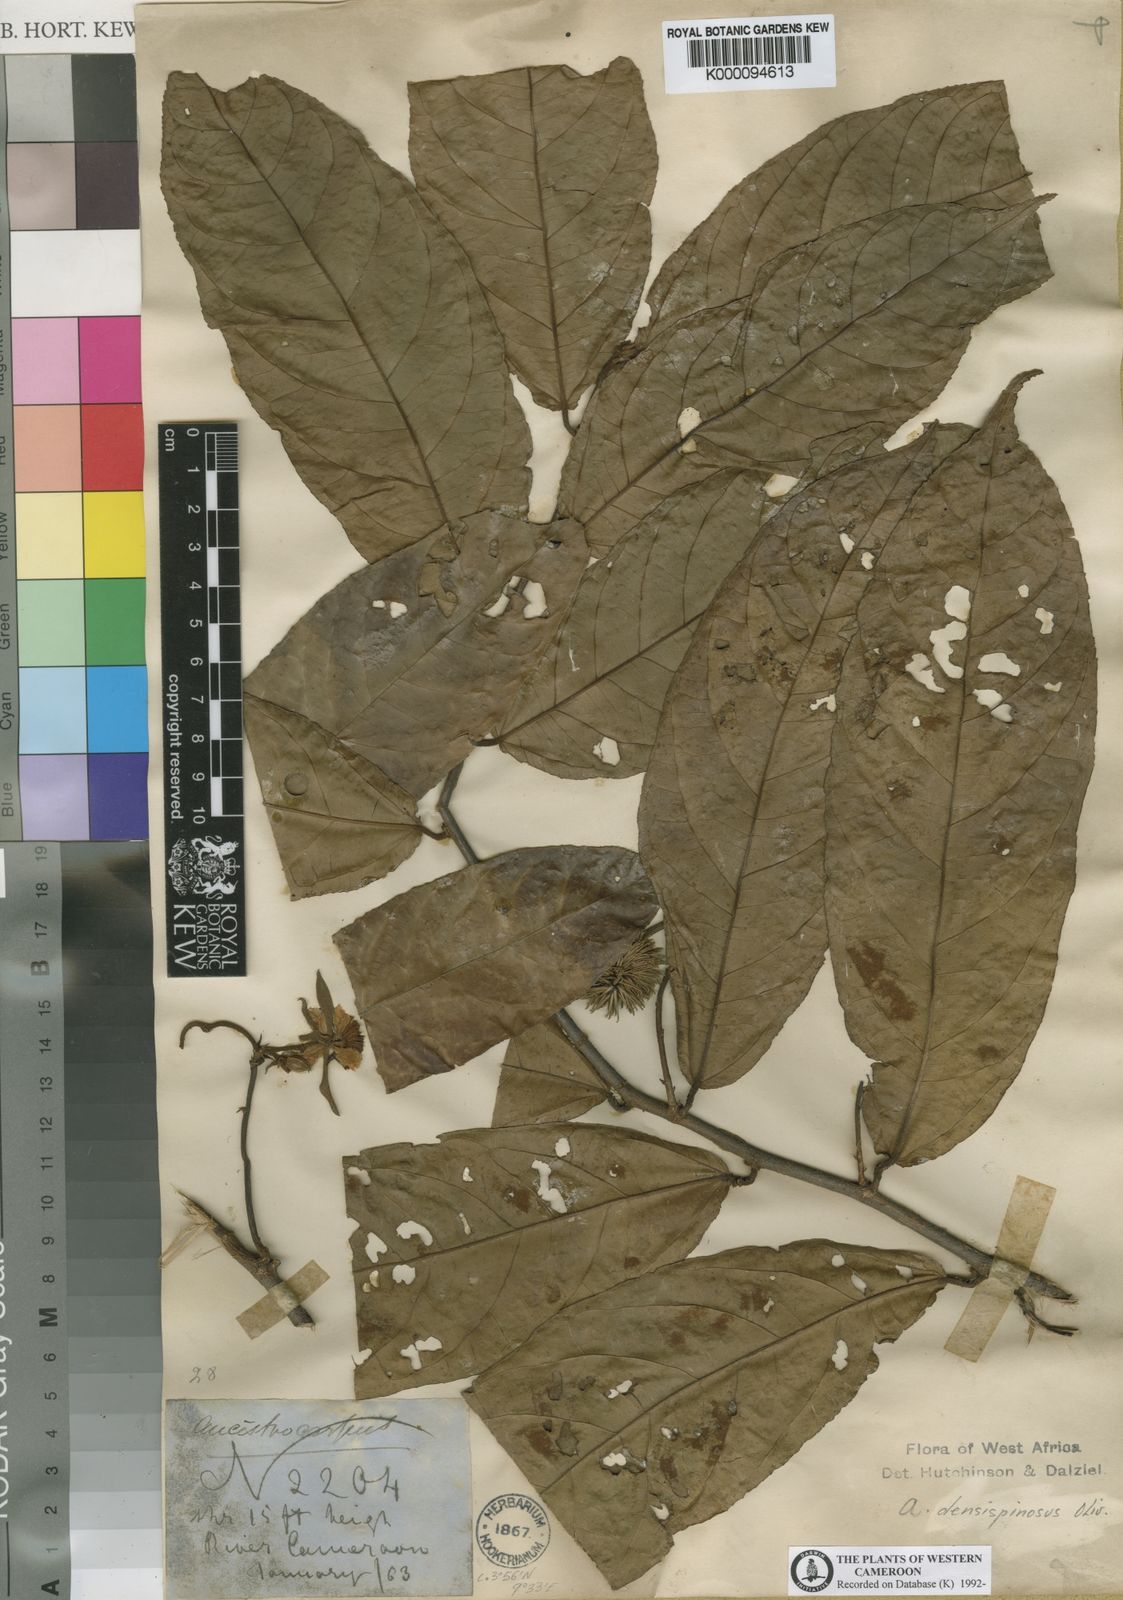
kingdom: Plantae
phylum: Tracheophyta
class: Magnoliopsida
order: Malvales
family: Malvaceae
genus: Ancistrocarpus
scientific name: Ancistrocarpus densispinosus
